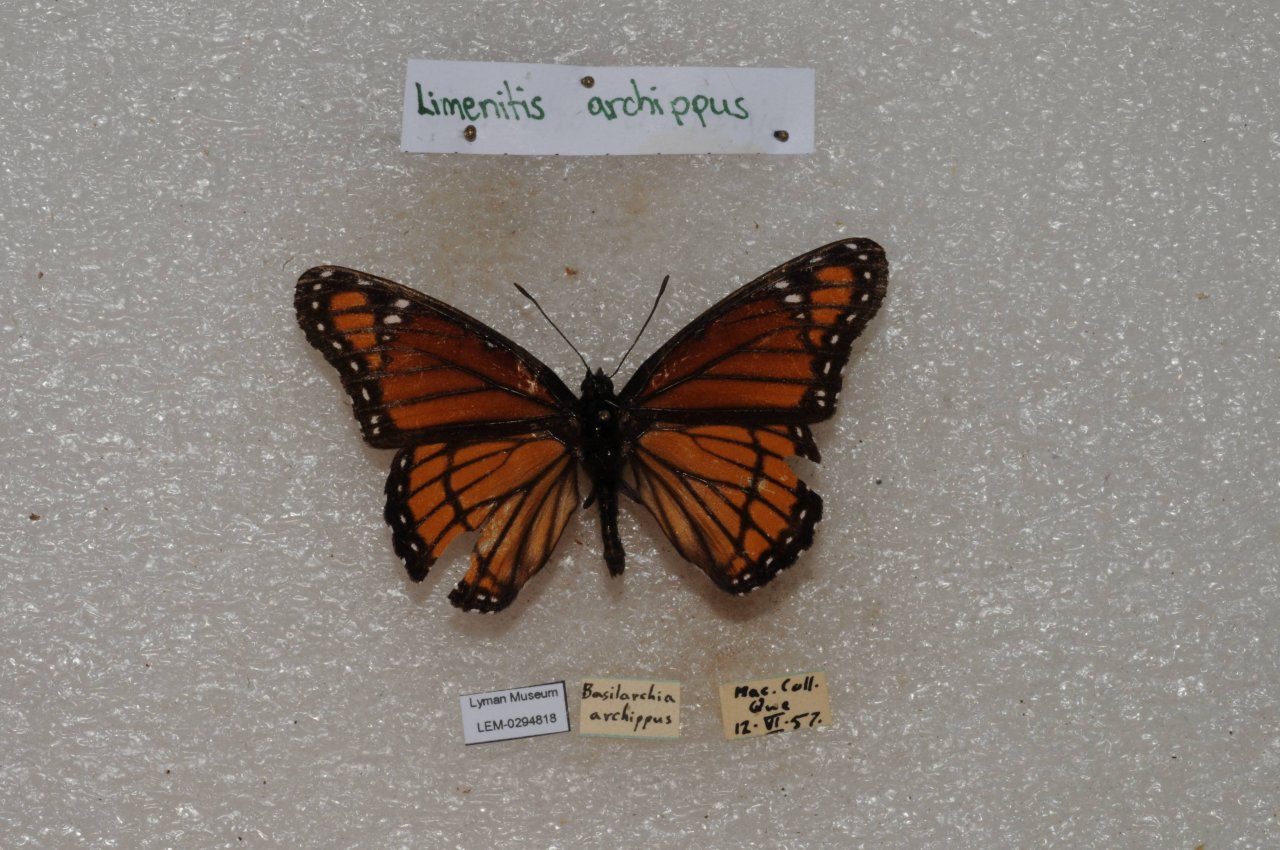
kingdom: Animalia
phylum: Arthropoda
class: Insecta
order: Lepidoptera
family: Nymphalidae
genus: Limenitis
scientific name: Limenitis archippus
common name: Viceroy
